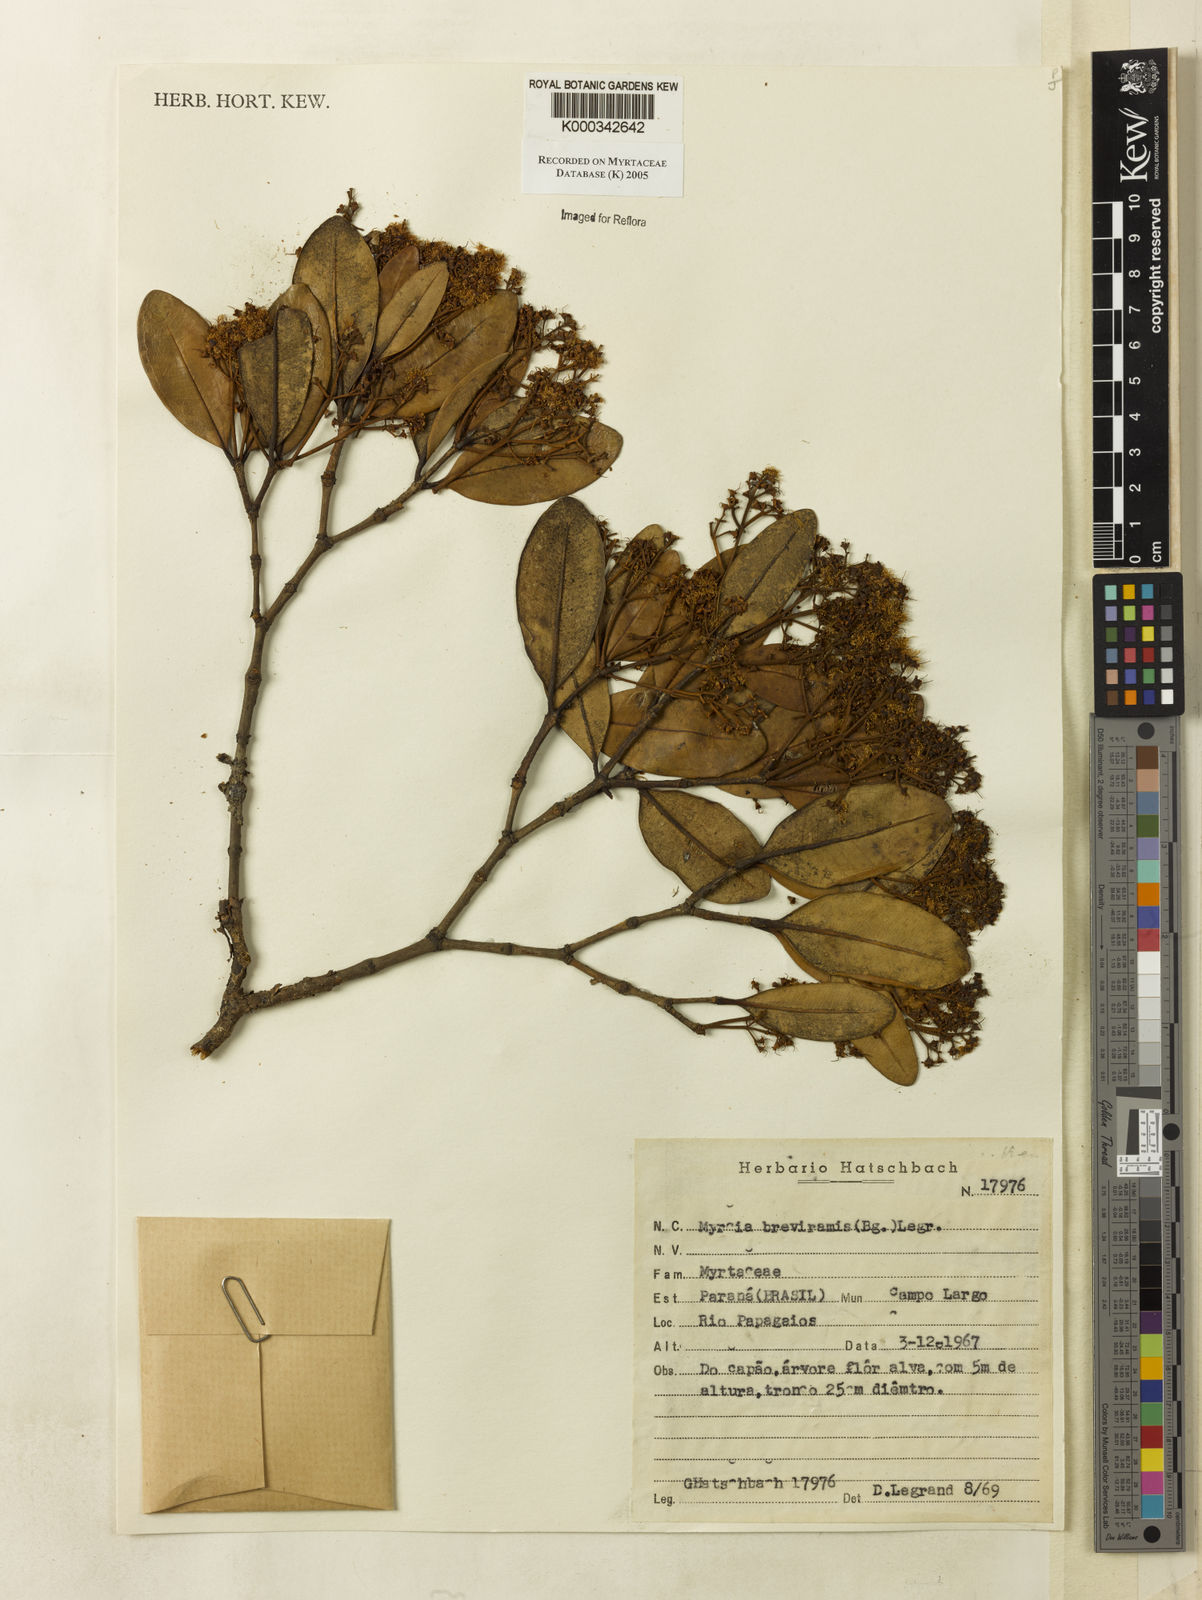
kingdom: Plantae
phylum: Tracheophyta
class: Magnoliopsida
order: Myrtales
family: Myrtaceae
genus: Myrcia
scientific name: Myrcia pulchra
